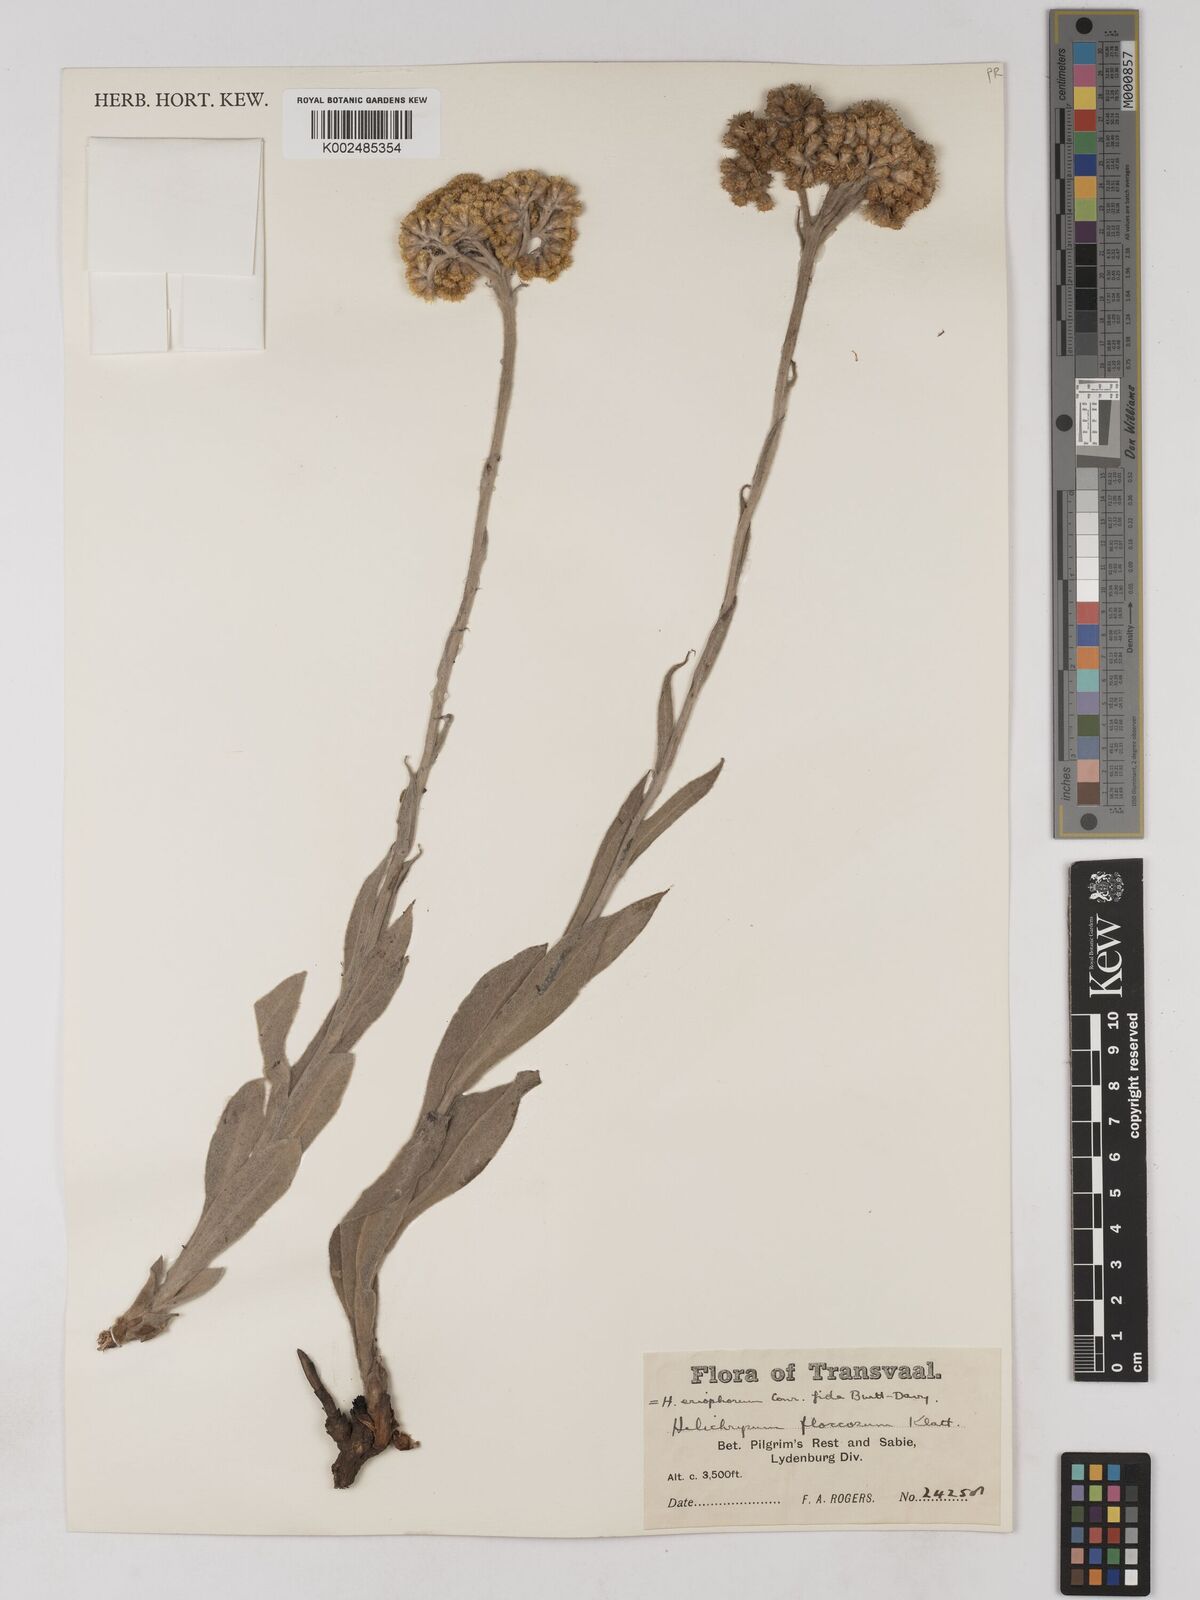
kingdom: Plantae
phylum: Tracheophyta
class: Magnoliopsida
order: Asterales
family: Asteraceae
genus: Helichrysum
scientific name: Helichrysum acutatum
